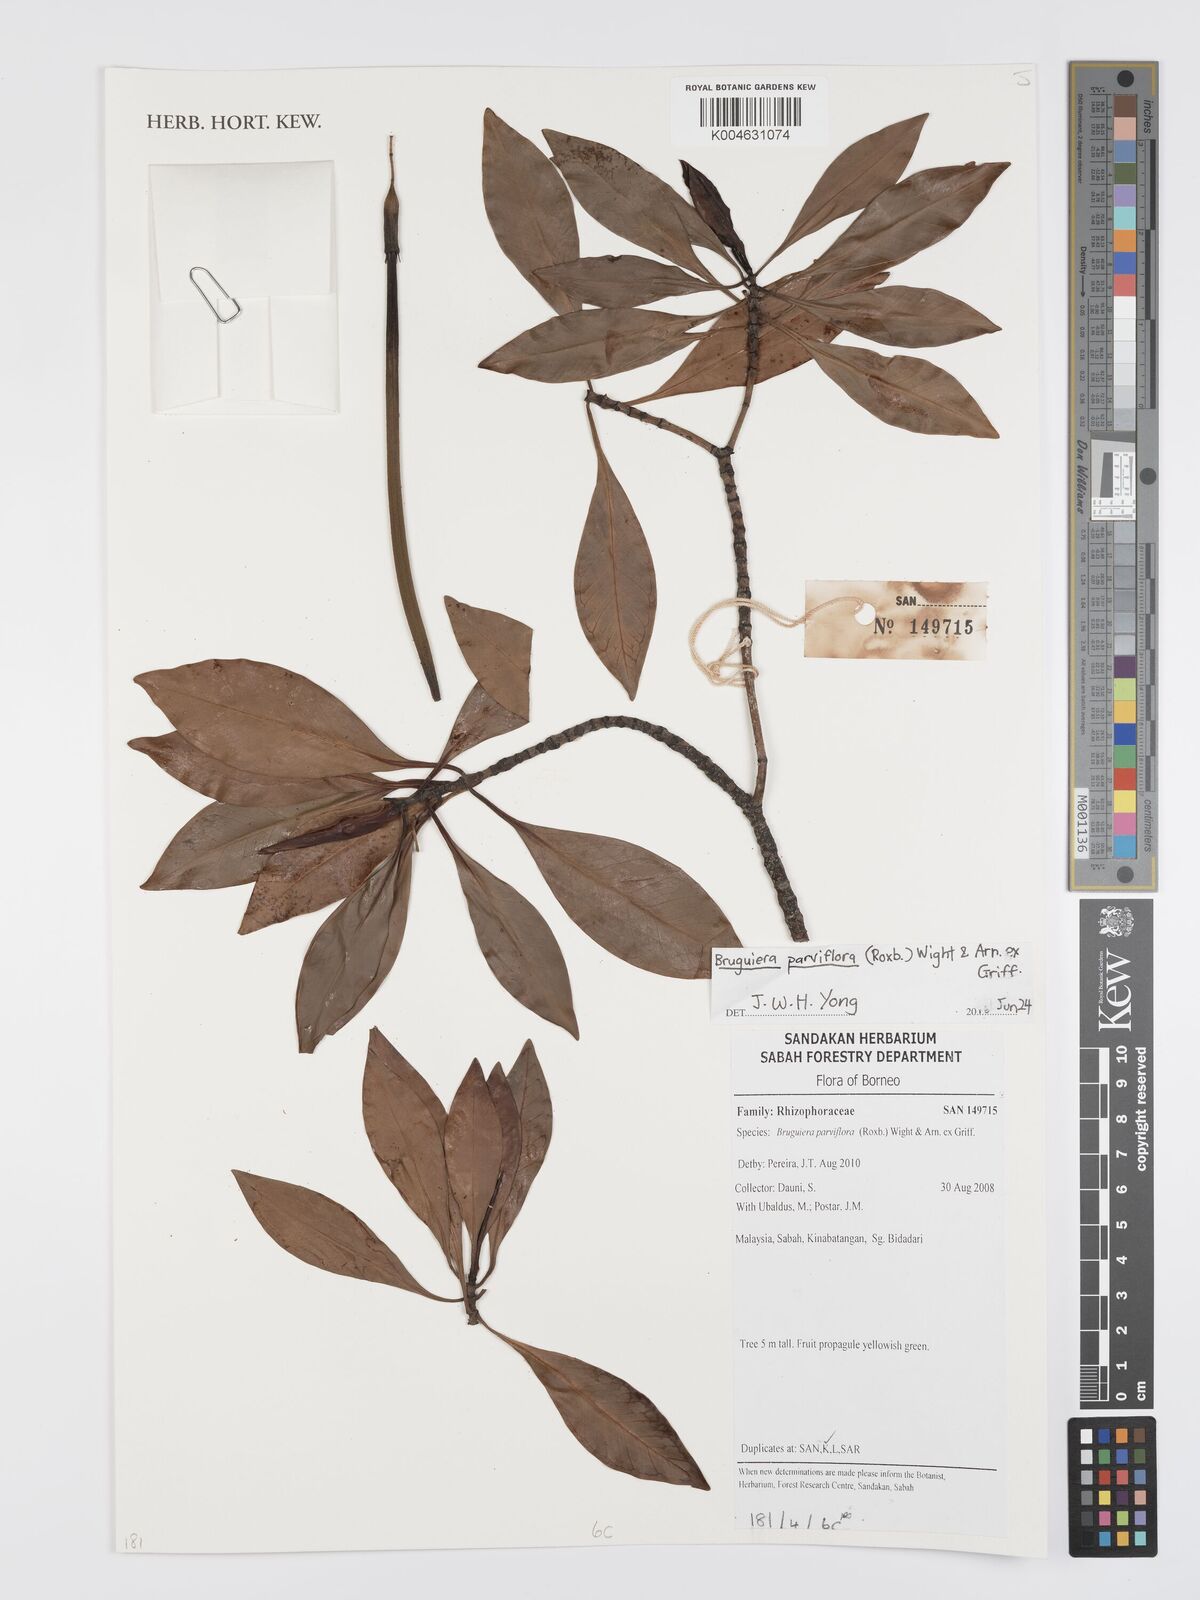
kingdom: Plantae
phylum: Tracheophyta
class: Magnoliopsida
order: Malpighiales
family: Rhizophoraceae
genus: Bruguiera
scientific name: Bruguiera parviflora
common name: Smallflower bruguiera
